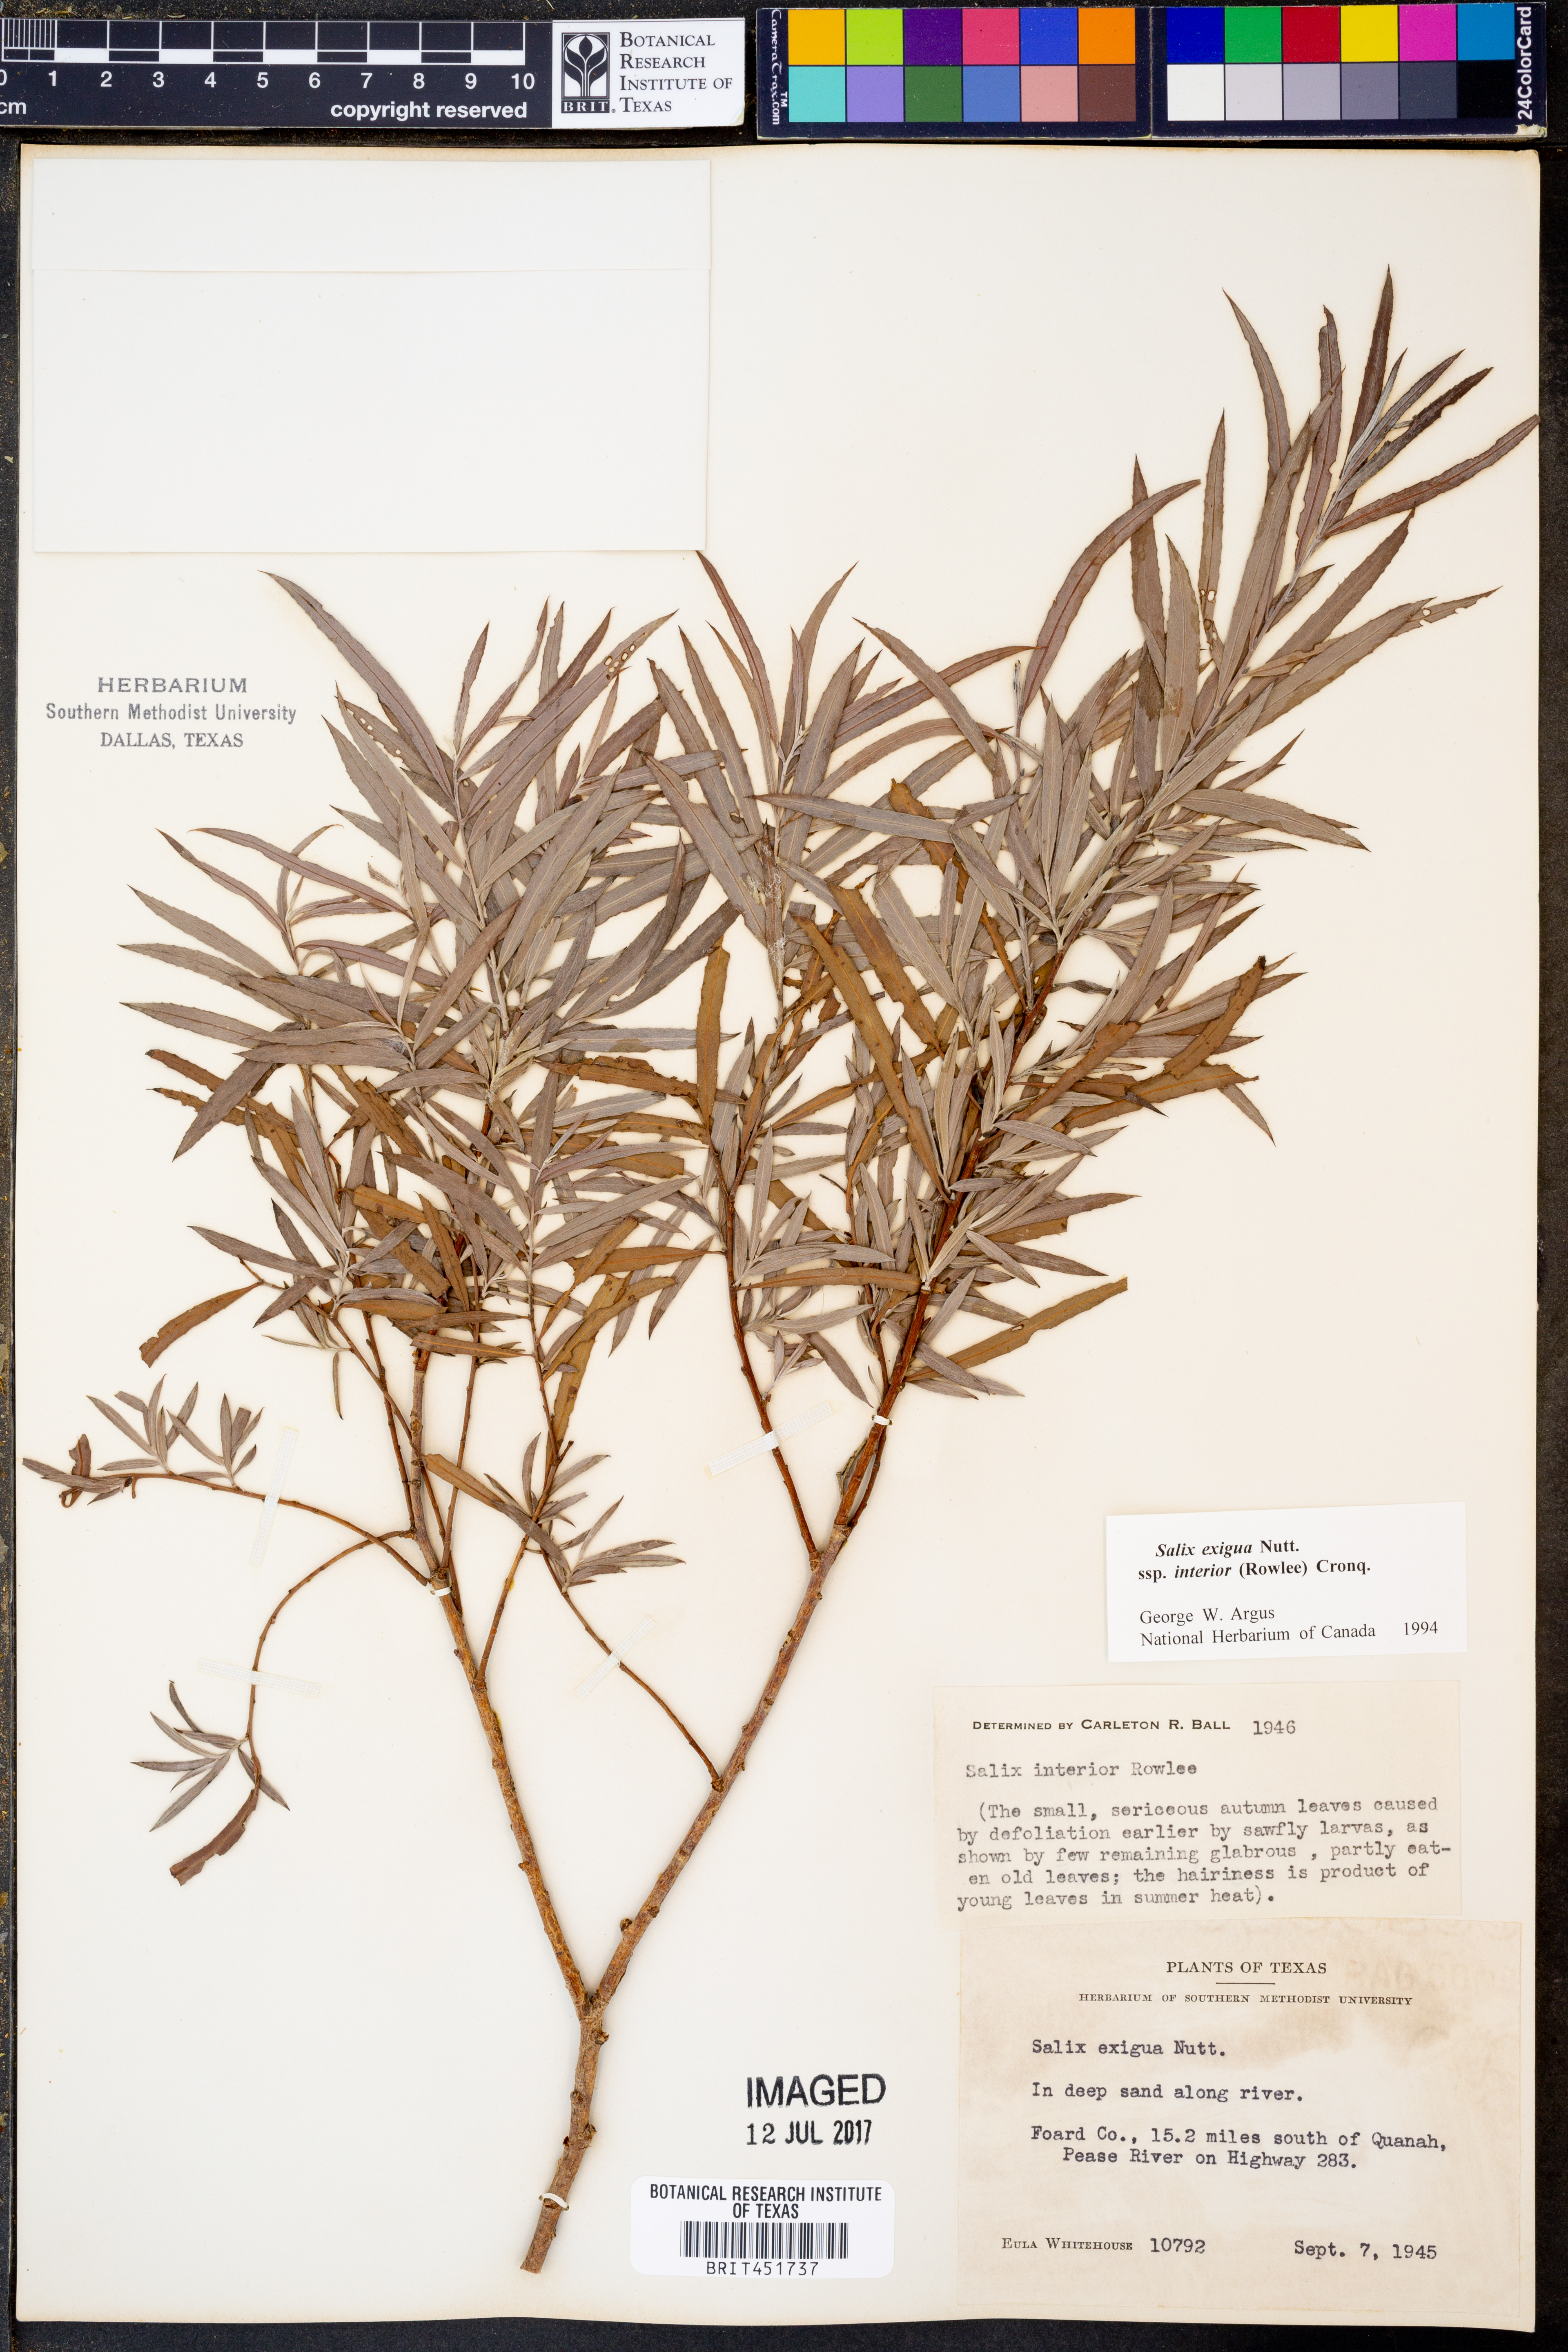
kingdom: Plantae
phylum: Tracheophyta
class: Magnoliopsida
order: Malpighiales
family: Salicaceae
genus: Salix
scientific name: Salix interior
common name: Sandbar willow
